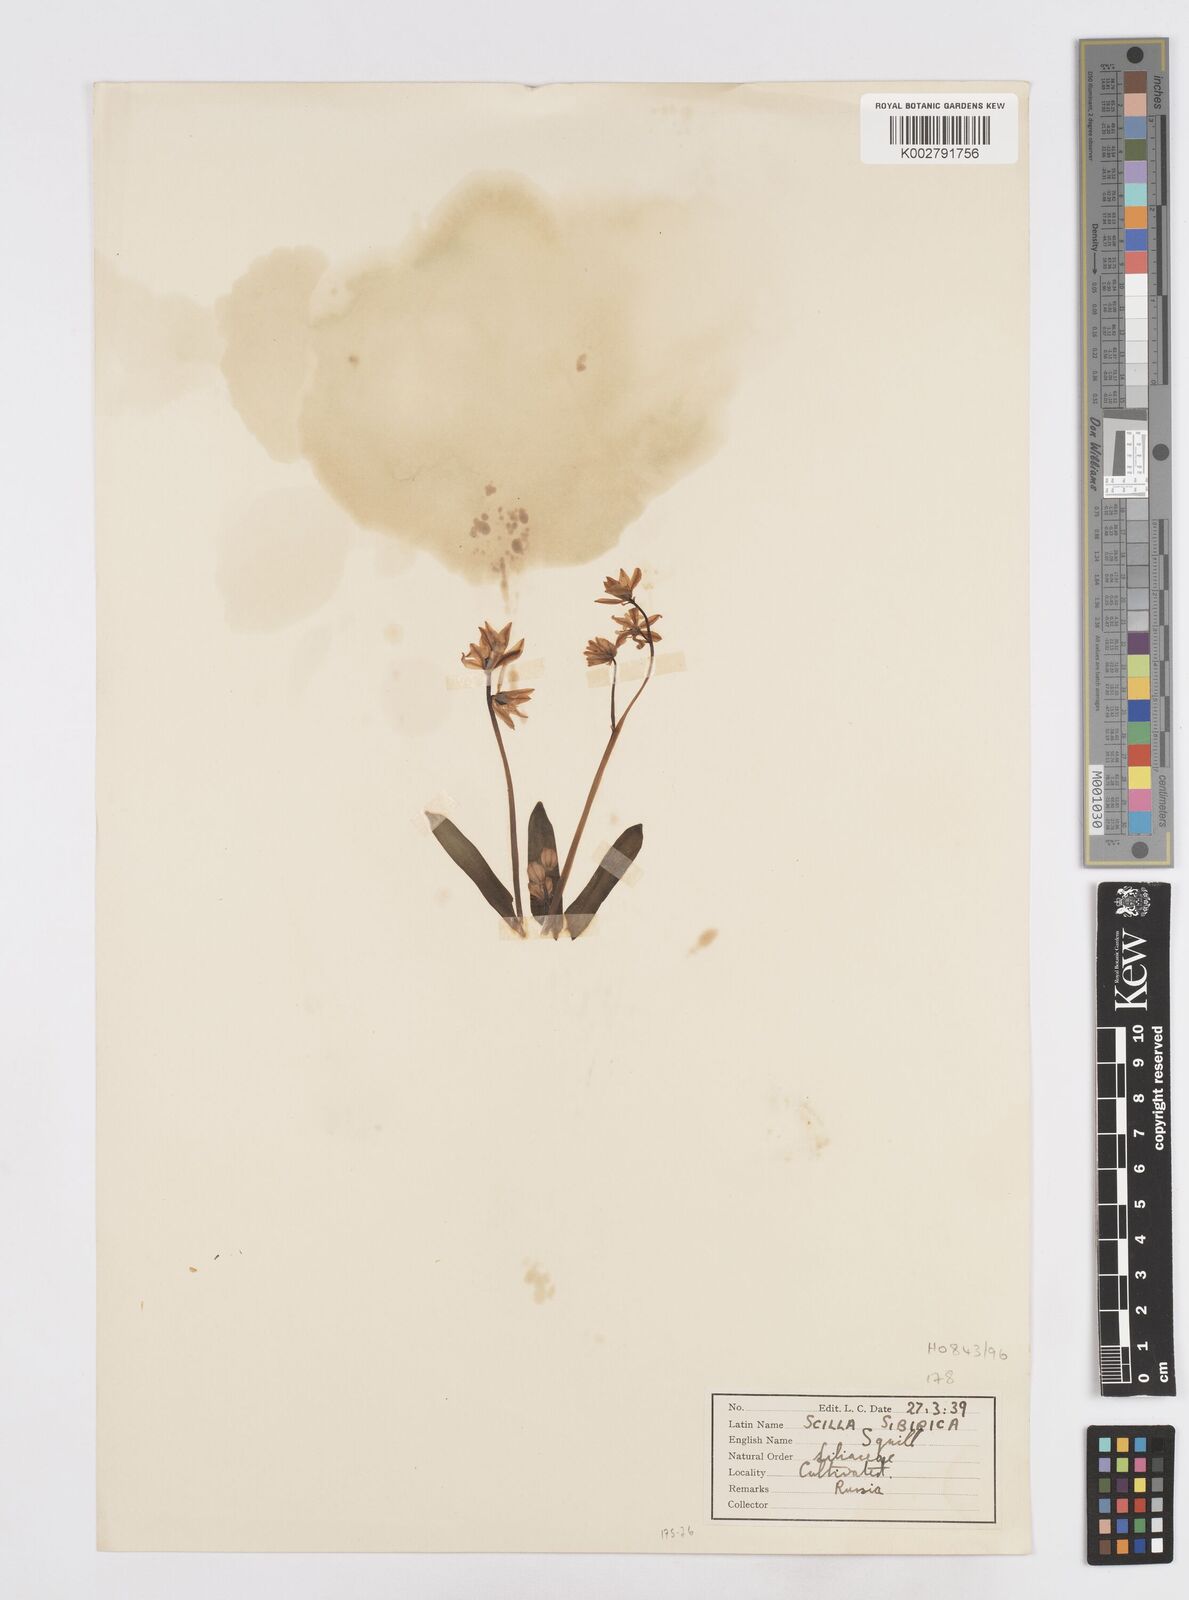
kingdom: Plantae
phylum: Tracheophyta
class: Liliopsida
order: Asparagales
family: Asparagaceae
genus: Scilla
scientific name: Scilla siberica
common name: Siberian squill
